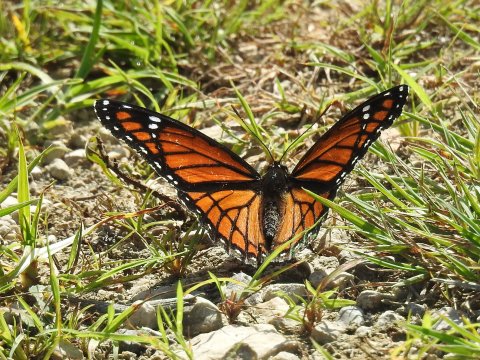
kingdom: Animalia
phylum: Arthropoda
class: Insecta
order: Lepidoptera
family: Nymphalidae
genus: Limenitis
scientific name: Limenitis archippus
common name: Viceroy
